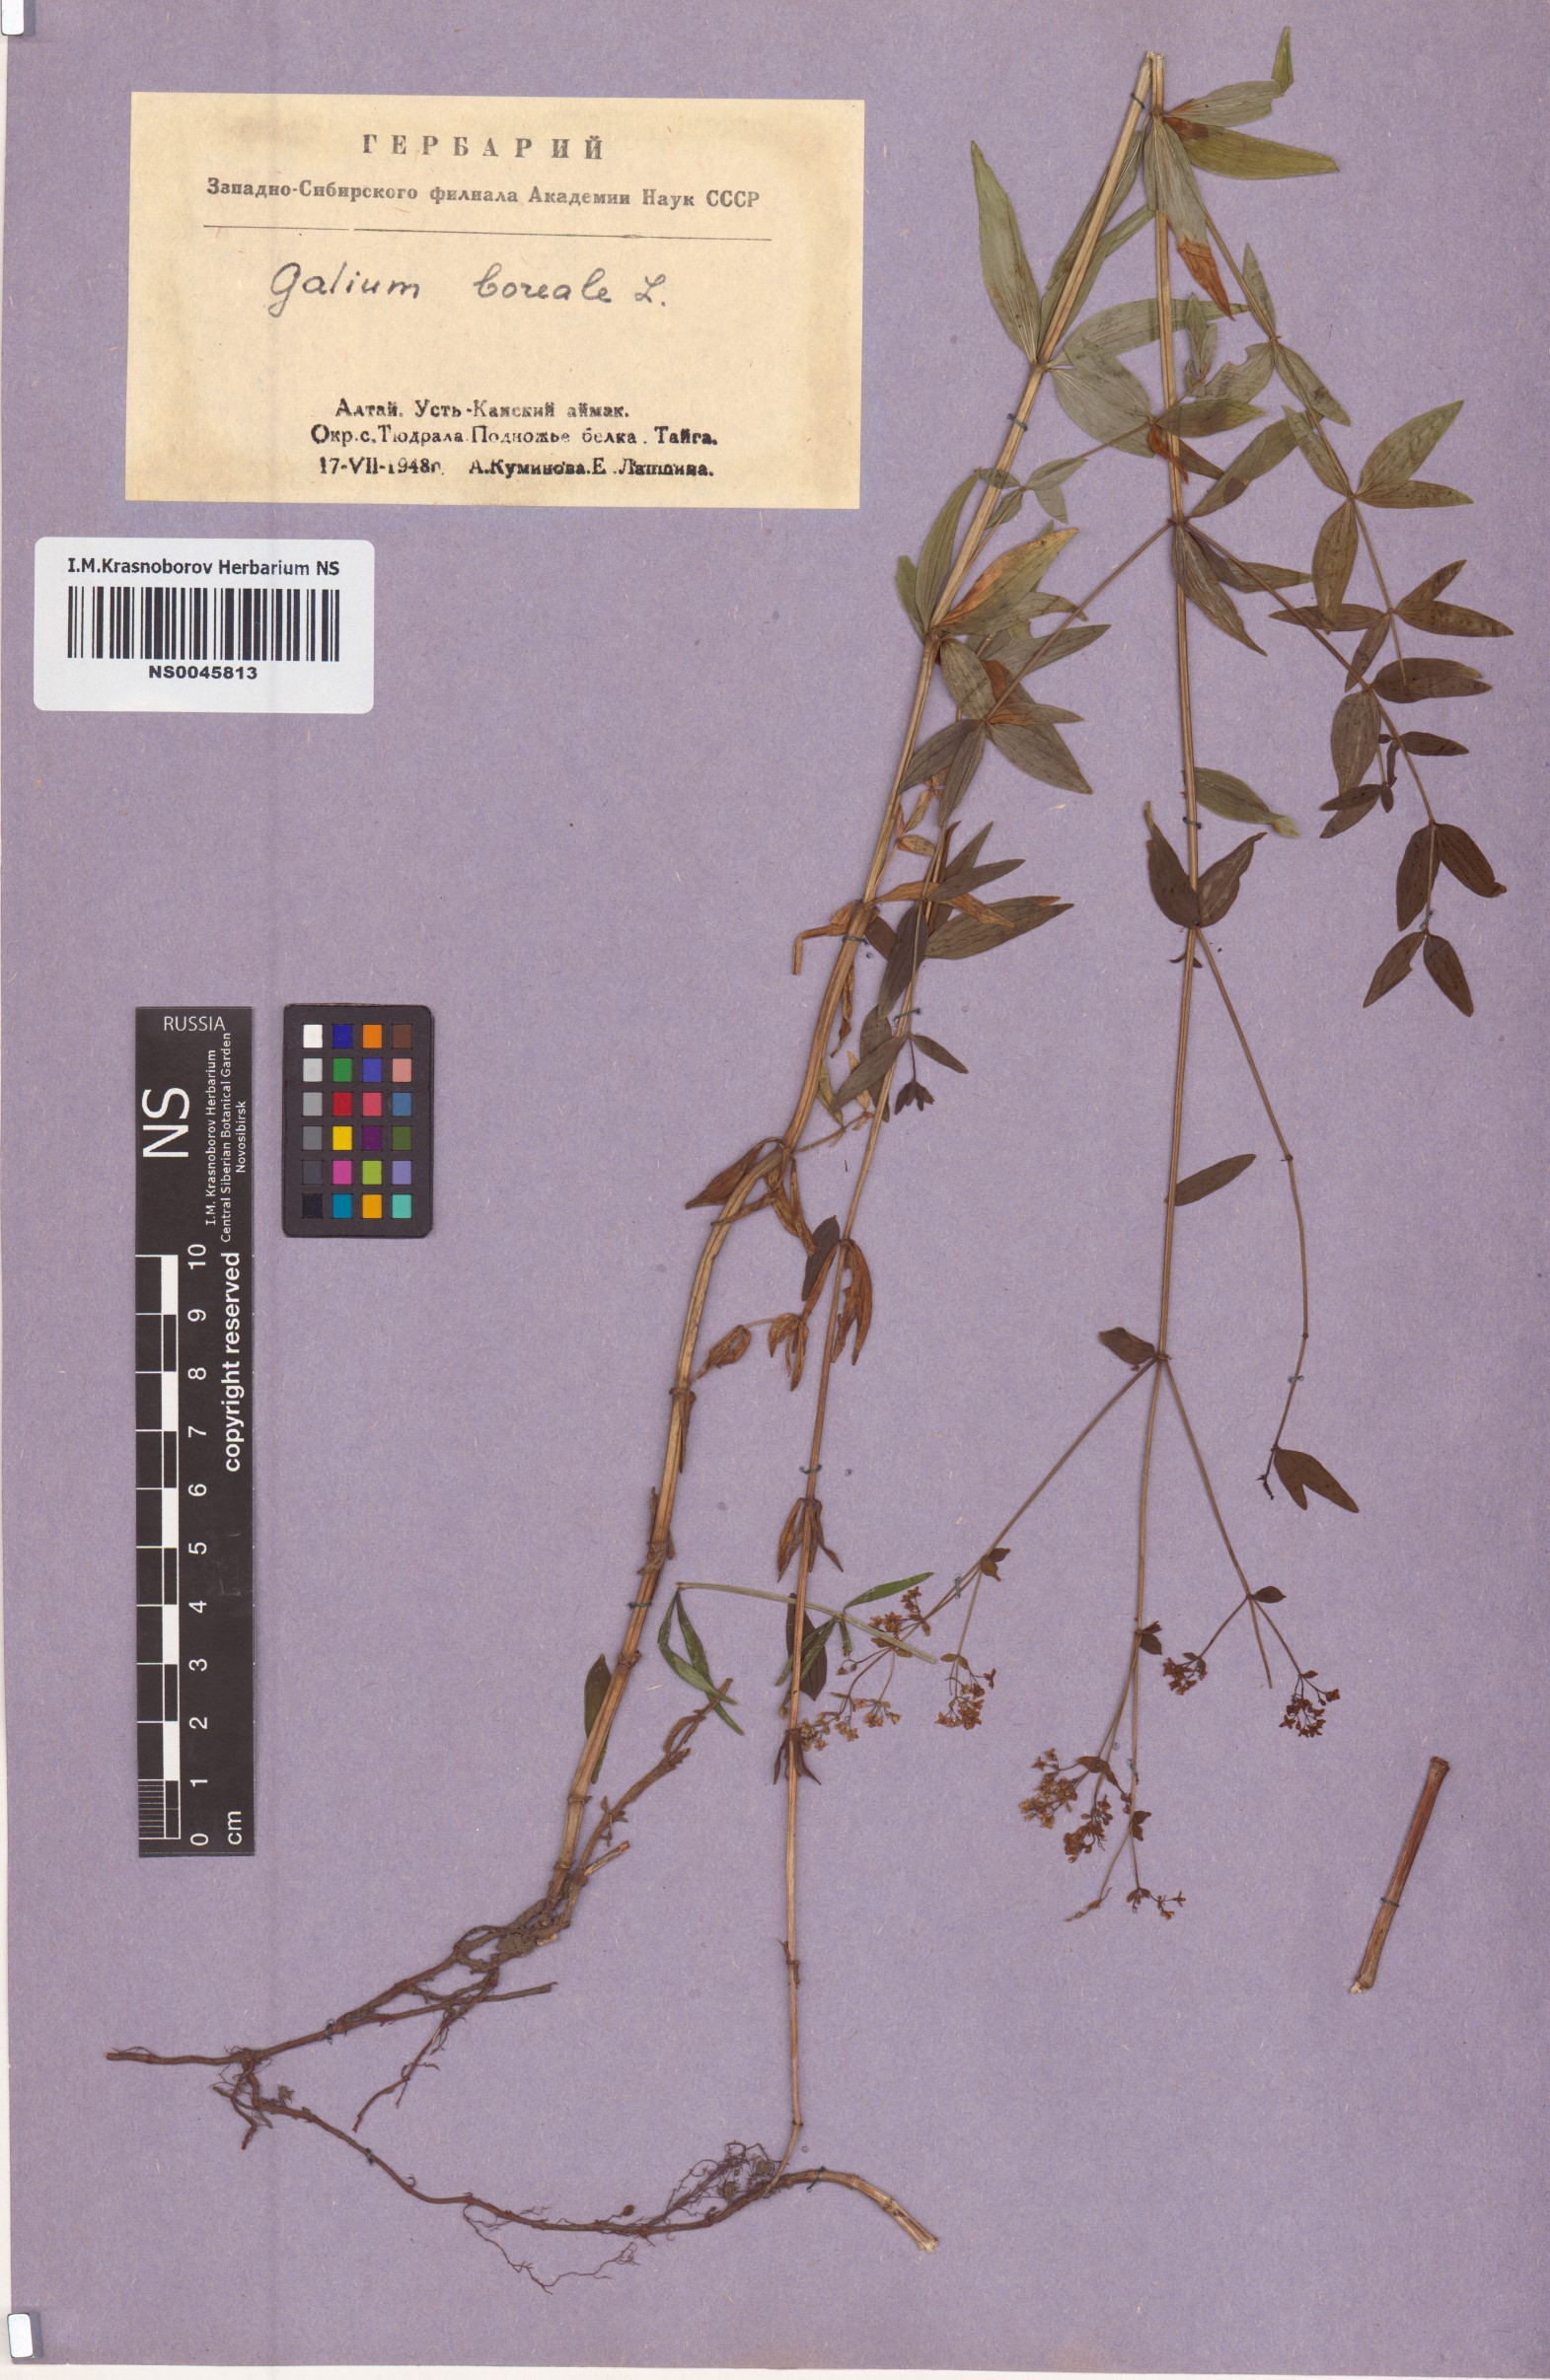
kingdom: Plantae
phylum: Tracheophyta
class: Magnoliopsida
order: Gentianales
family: Rubiaceae
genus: Galium
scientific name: Galium boreale
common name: Northern bedstraw
